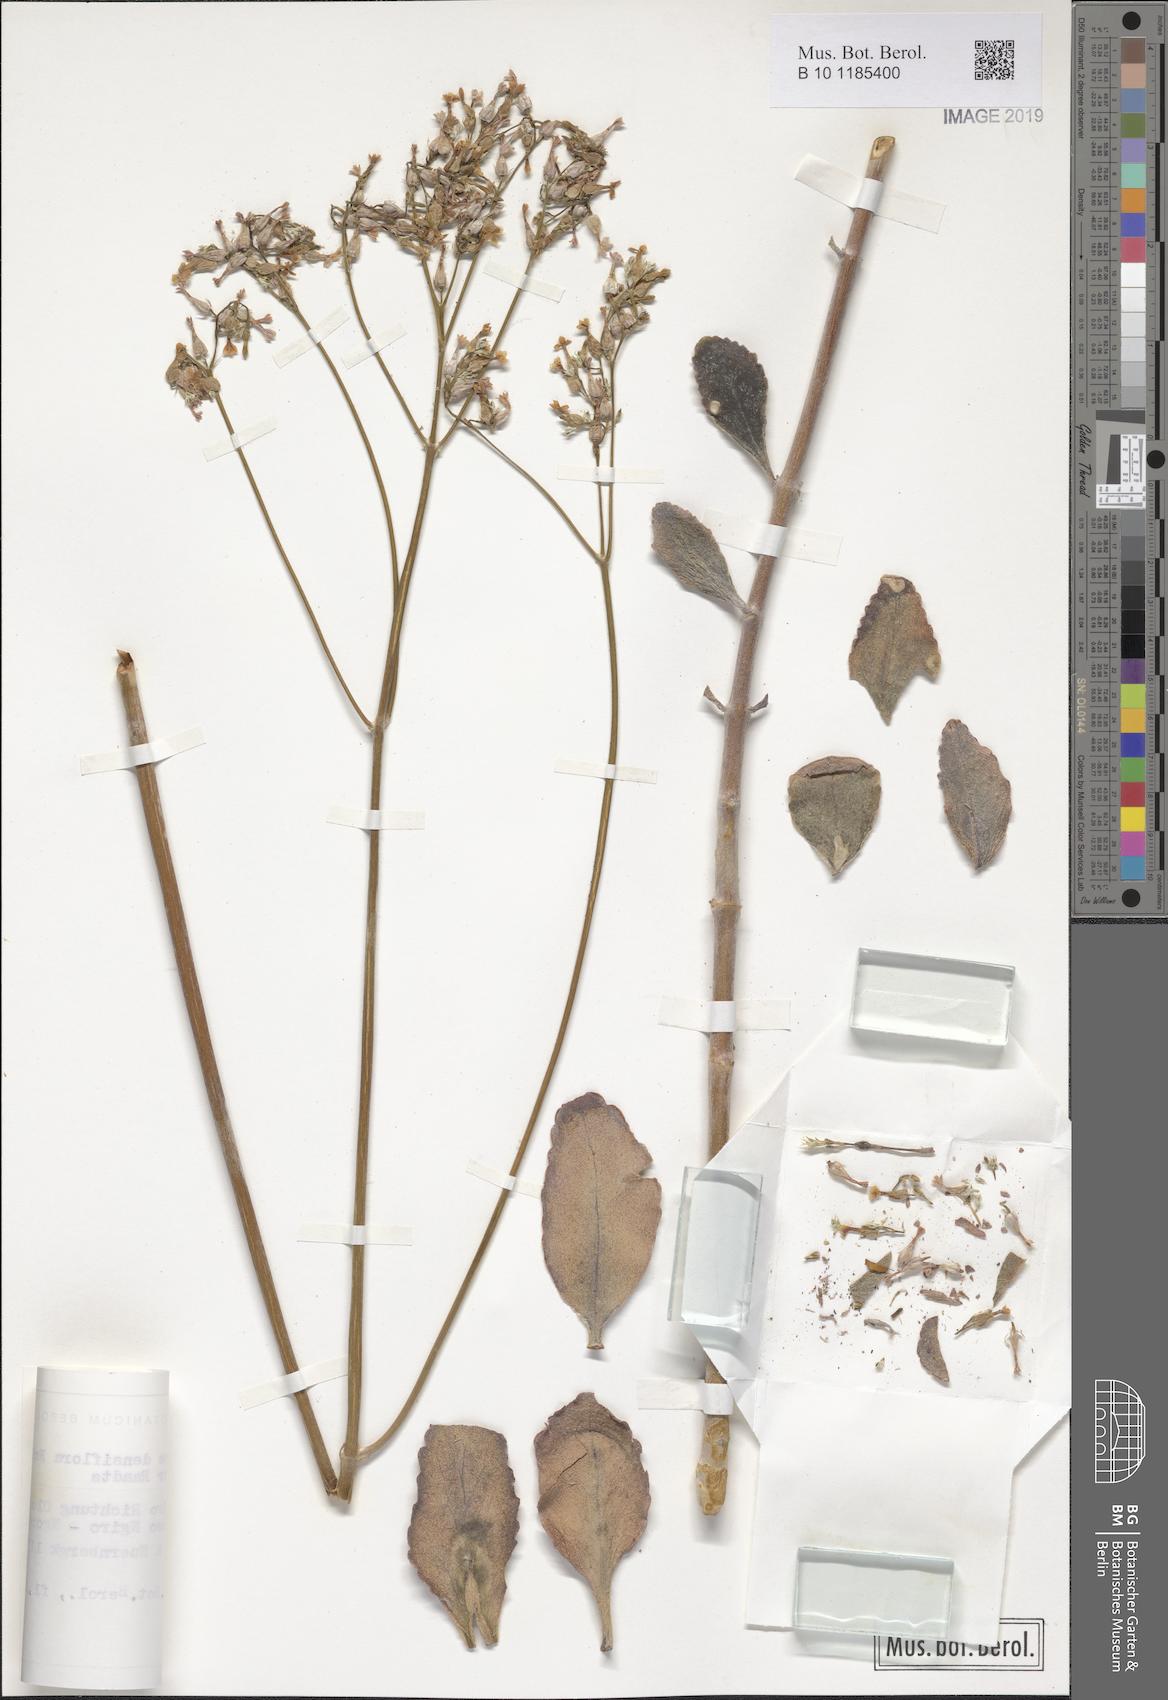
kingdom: Plantae
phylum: Tracheophyta
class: Magnoliopsida
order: Saxifragales
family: Crassulaceae
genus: Kalanchoe
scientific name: Kalanchoe densiflora
